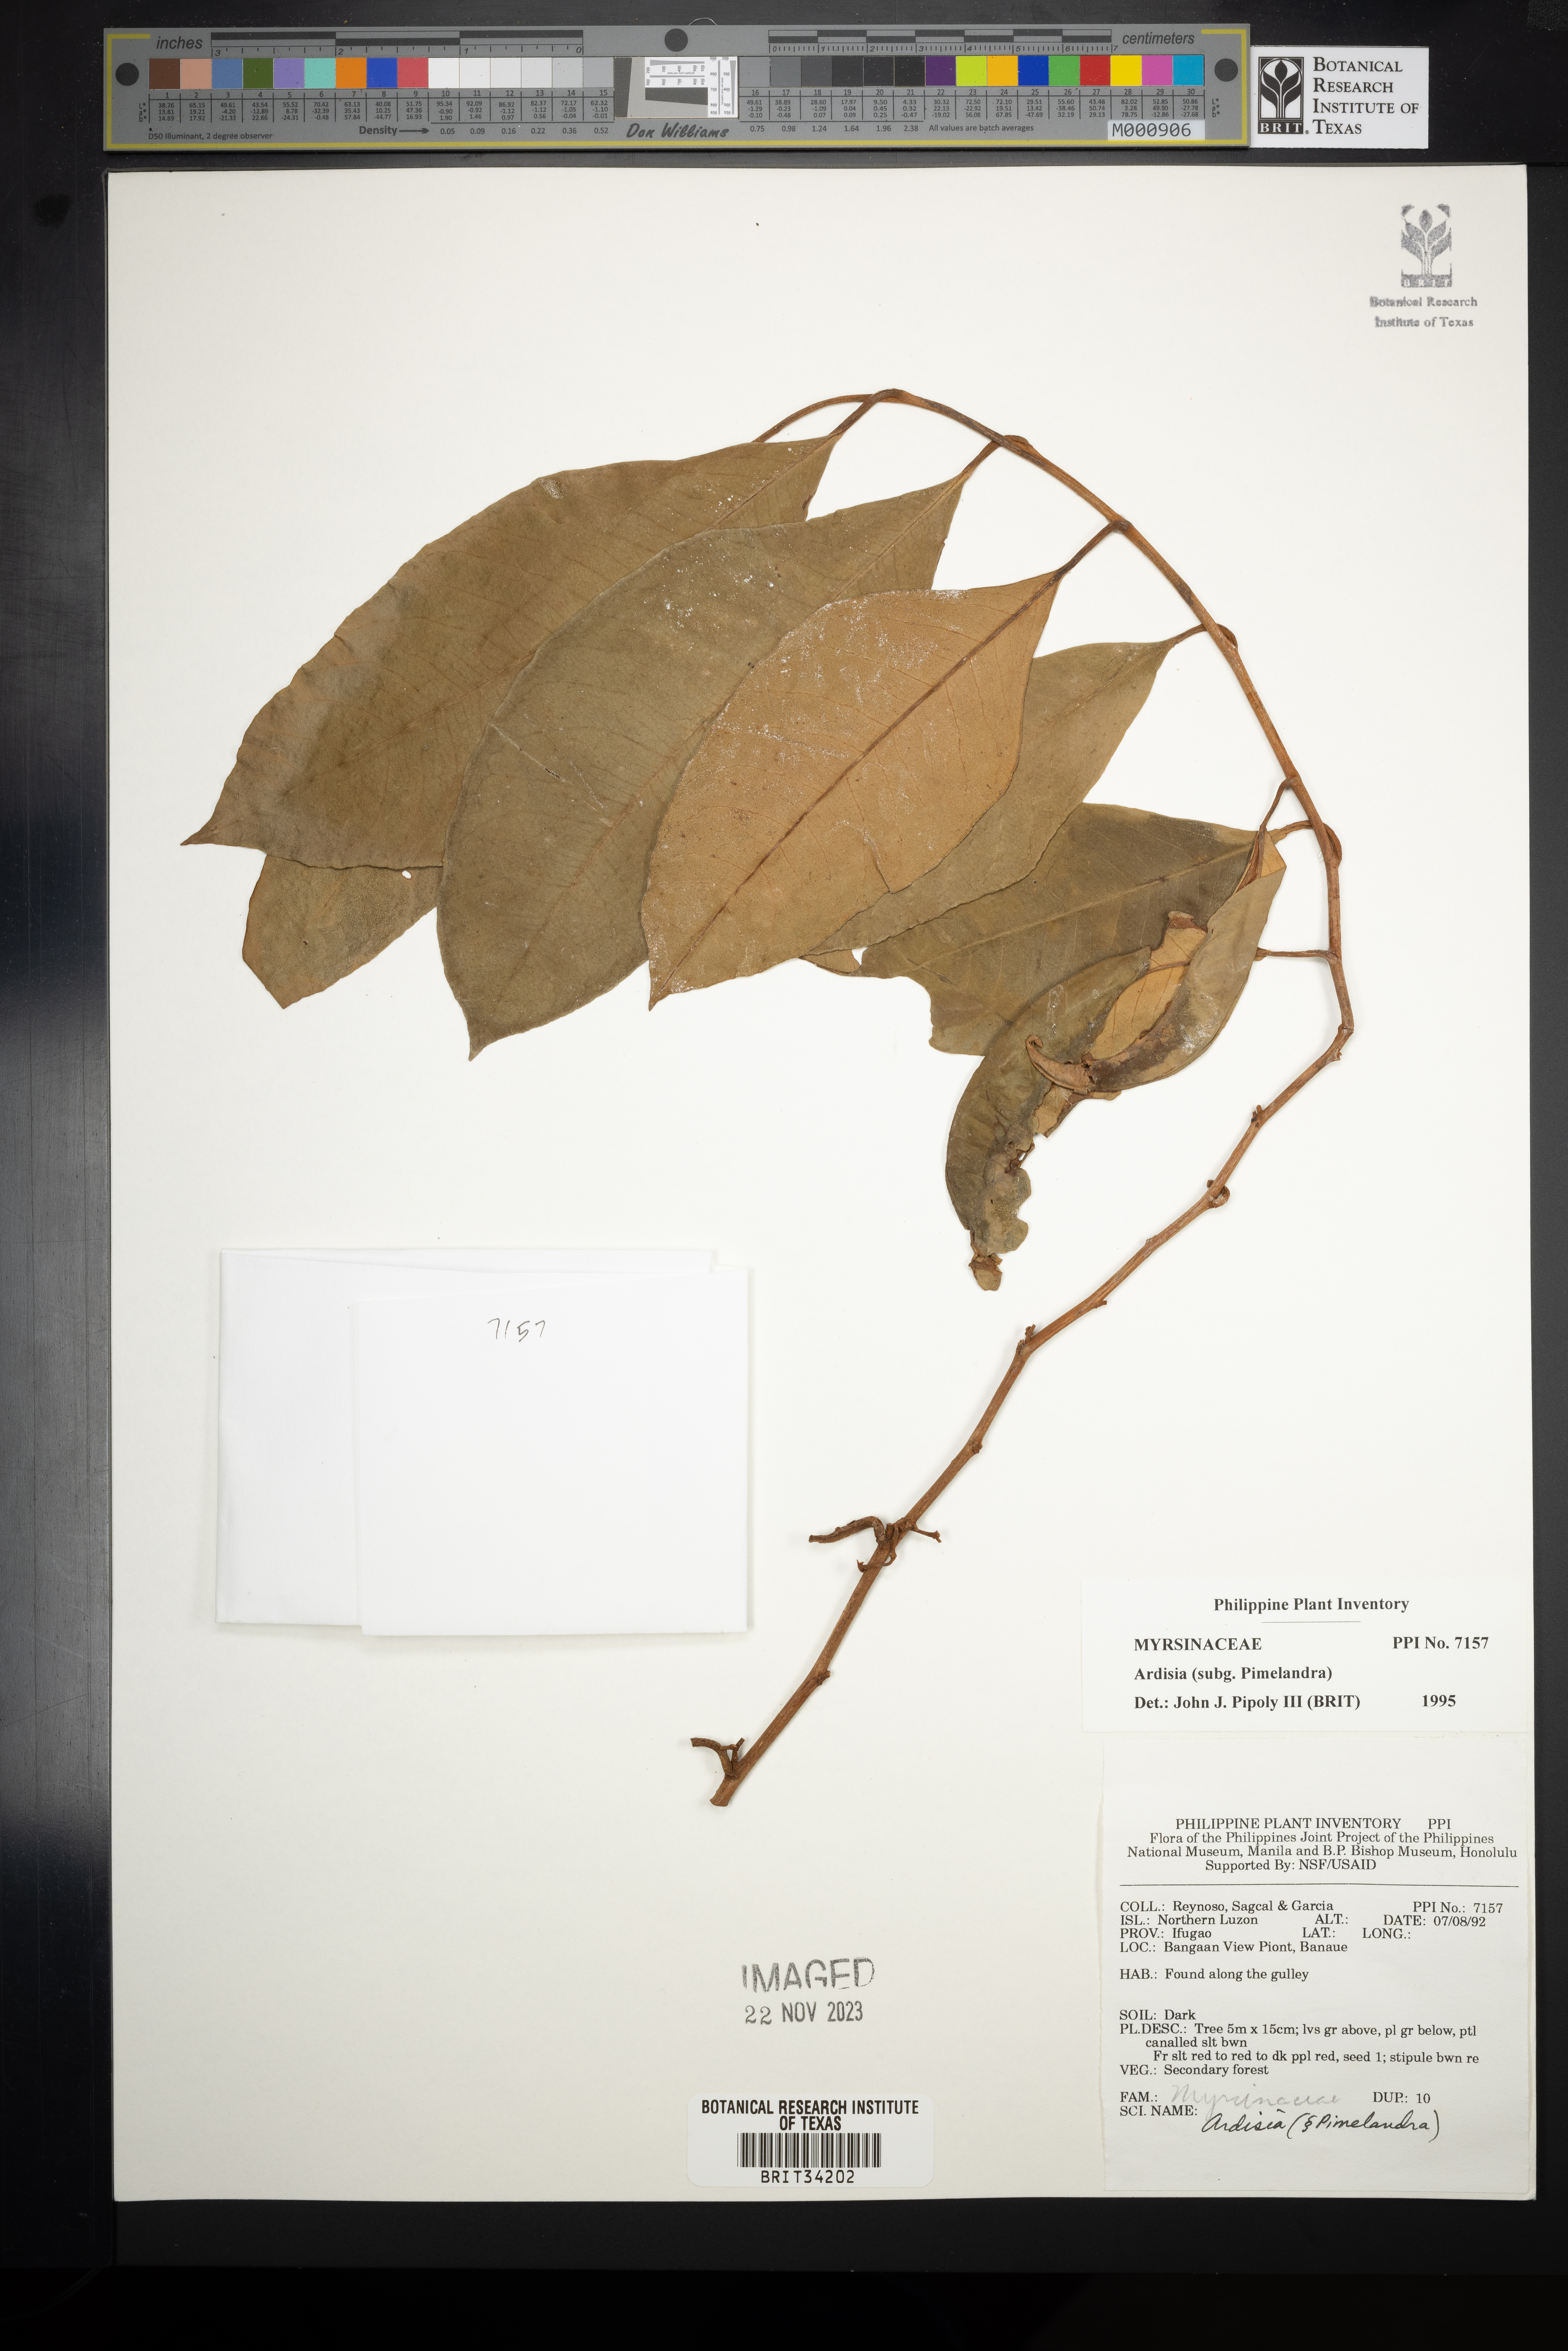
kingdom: Plantae
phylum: Tracheophyta
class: Magnoliopsida
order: Ericales
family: Primulaceae
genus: Ardisia
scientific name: Ardisia
